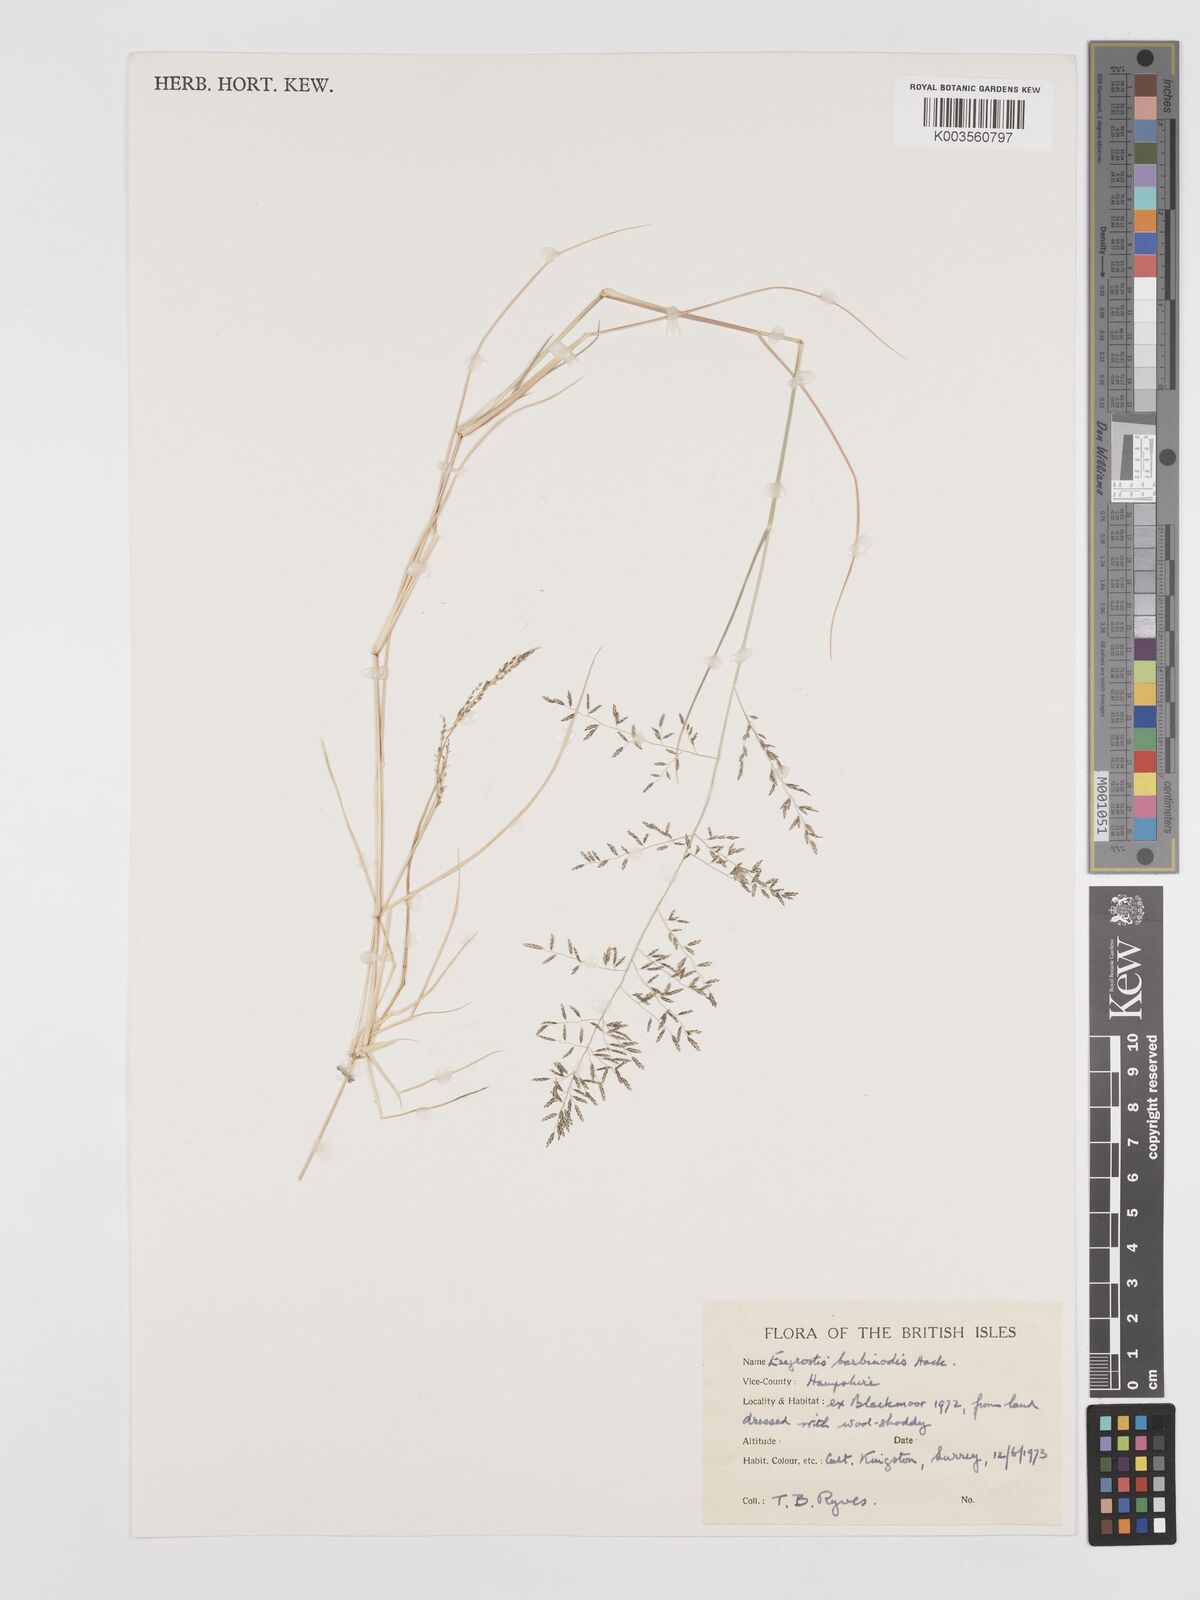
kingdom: Plantae
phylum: Tracheophyta
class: Liliopsida
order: Poales
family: Poaceae
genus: Eragrostis
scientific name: Eragrostis
